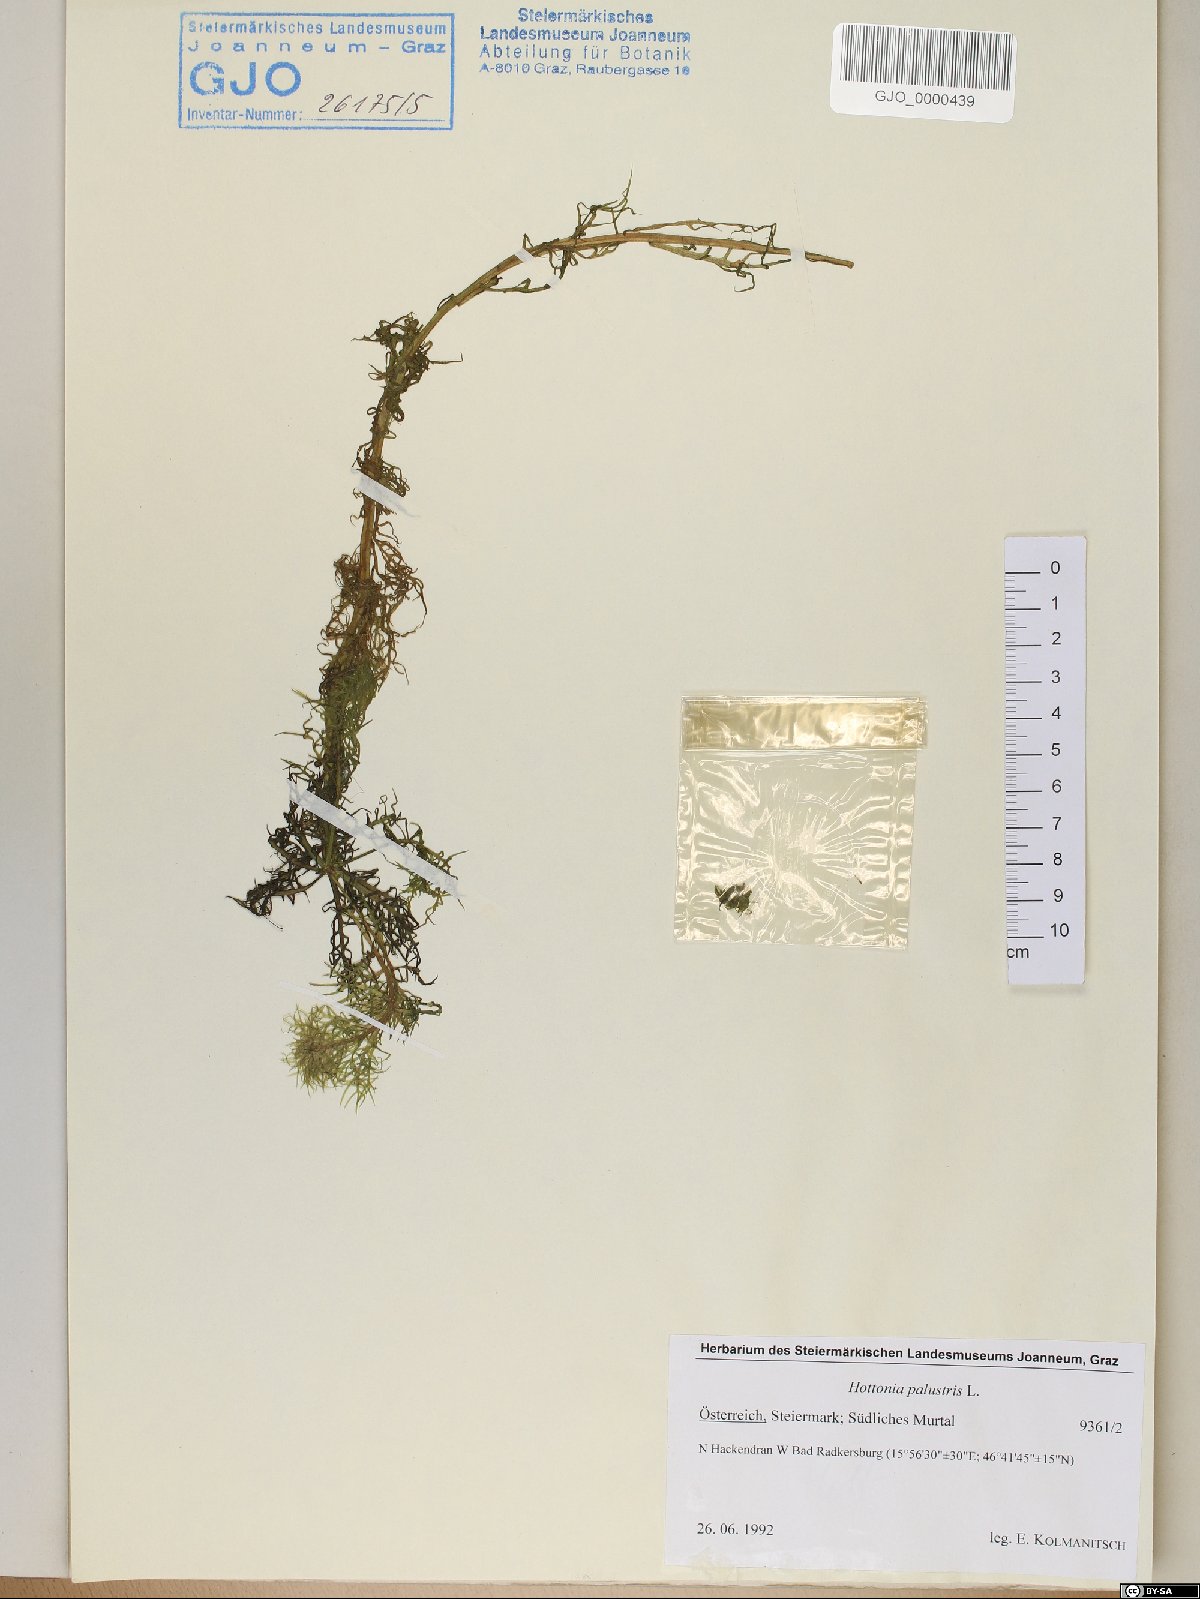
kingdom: Plantae
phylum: Tracheophyta
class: Magnoliopsida
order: Ericales
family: Primulaceae
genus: Hottonia
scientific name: Hottonia palustris
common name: Water-violet
